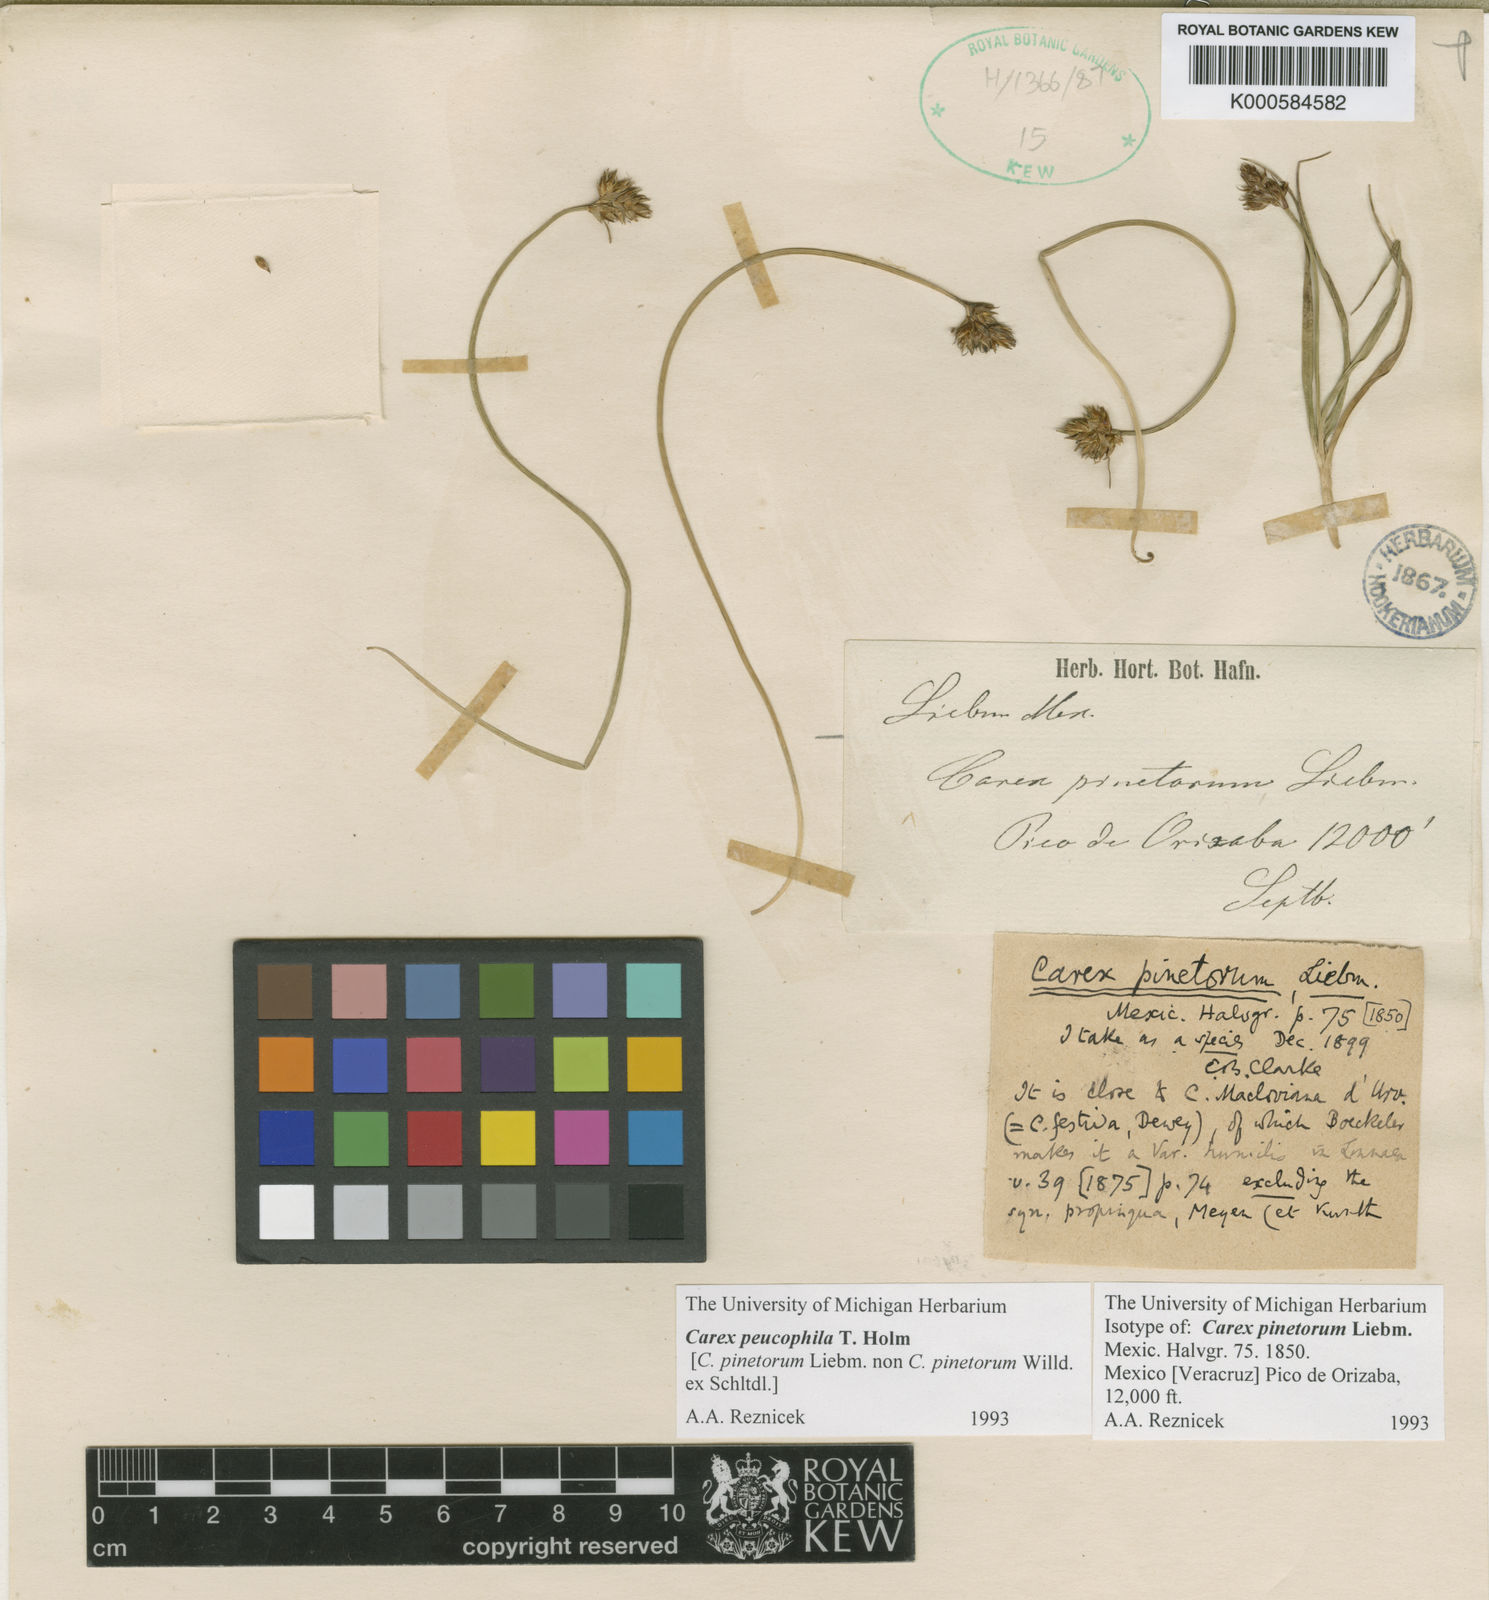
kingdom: Plantae
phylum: Tracheophyta
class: Liliopsida
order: Poales
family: Cyperaceae
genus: Carex
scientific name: Carex peucophila
